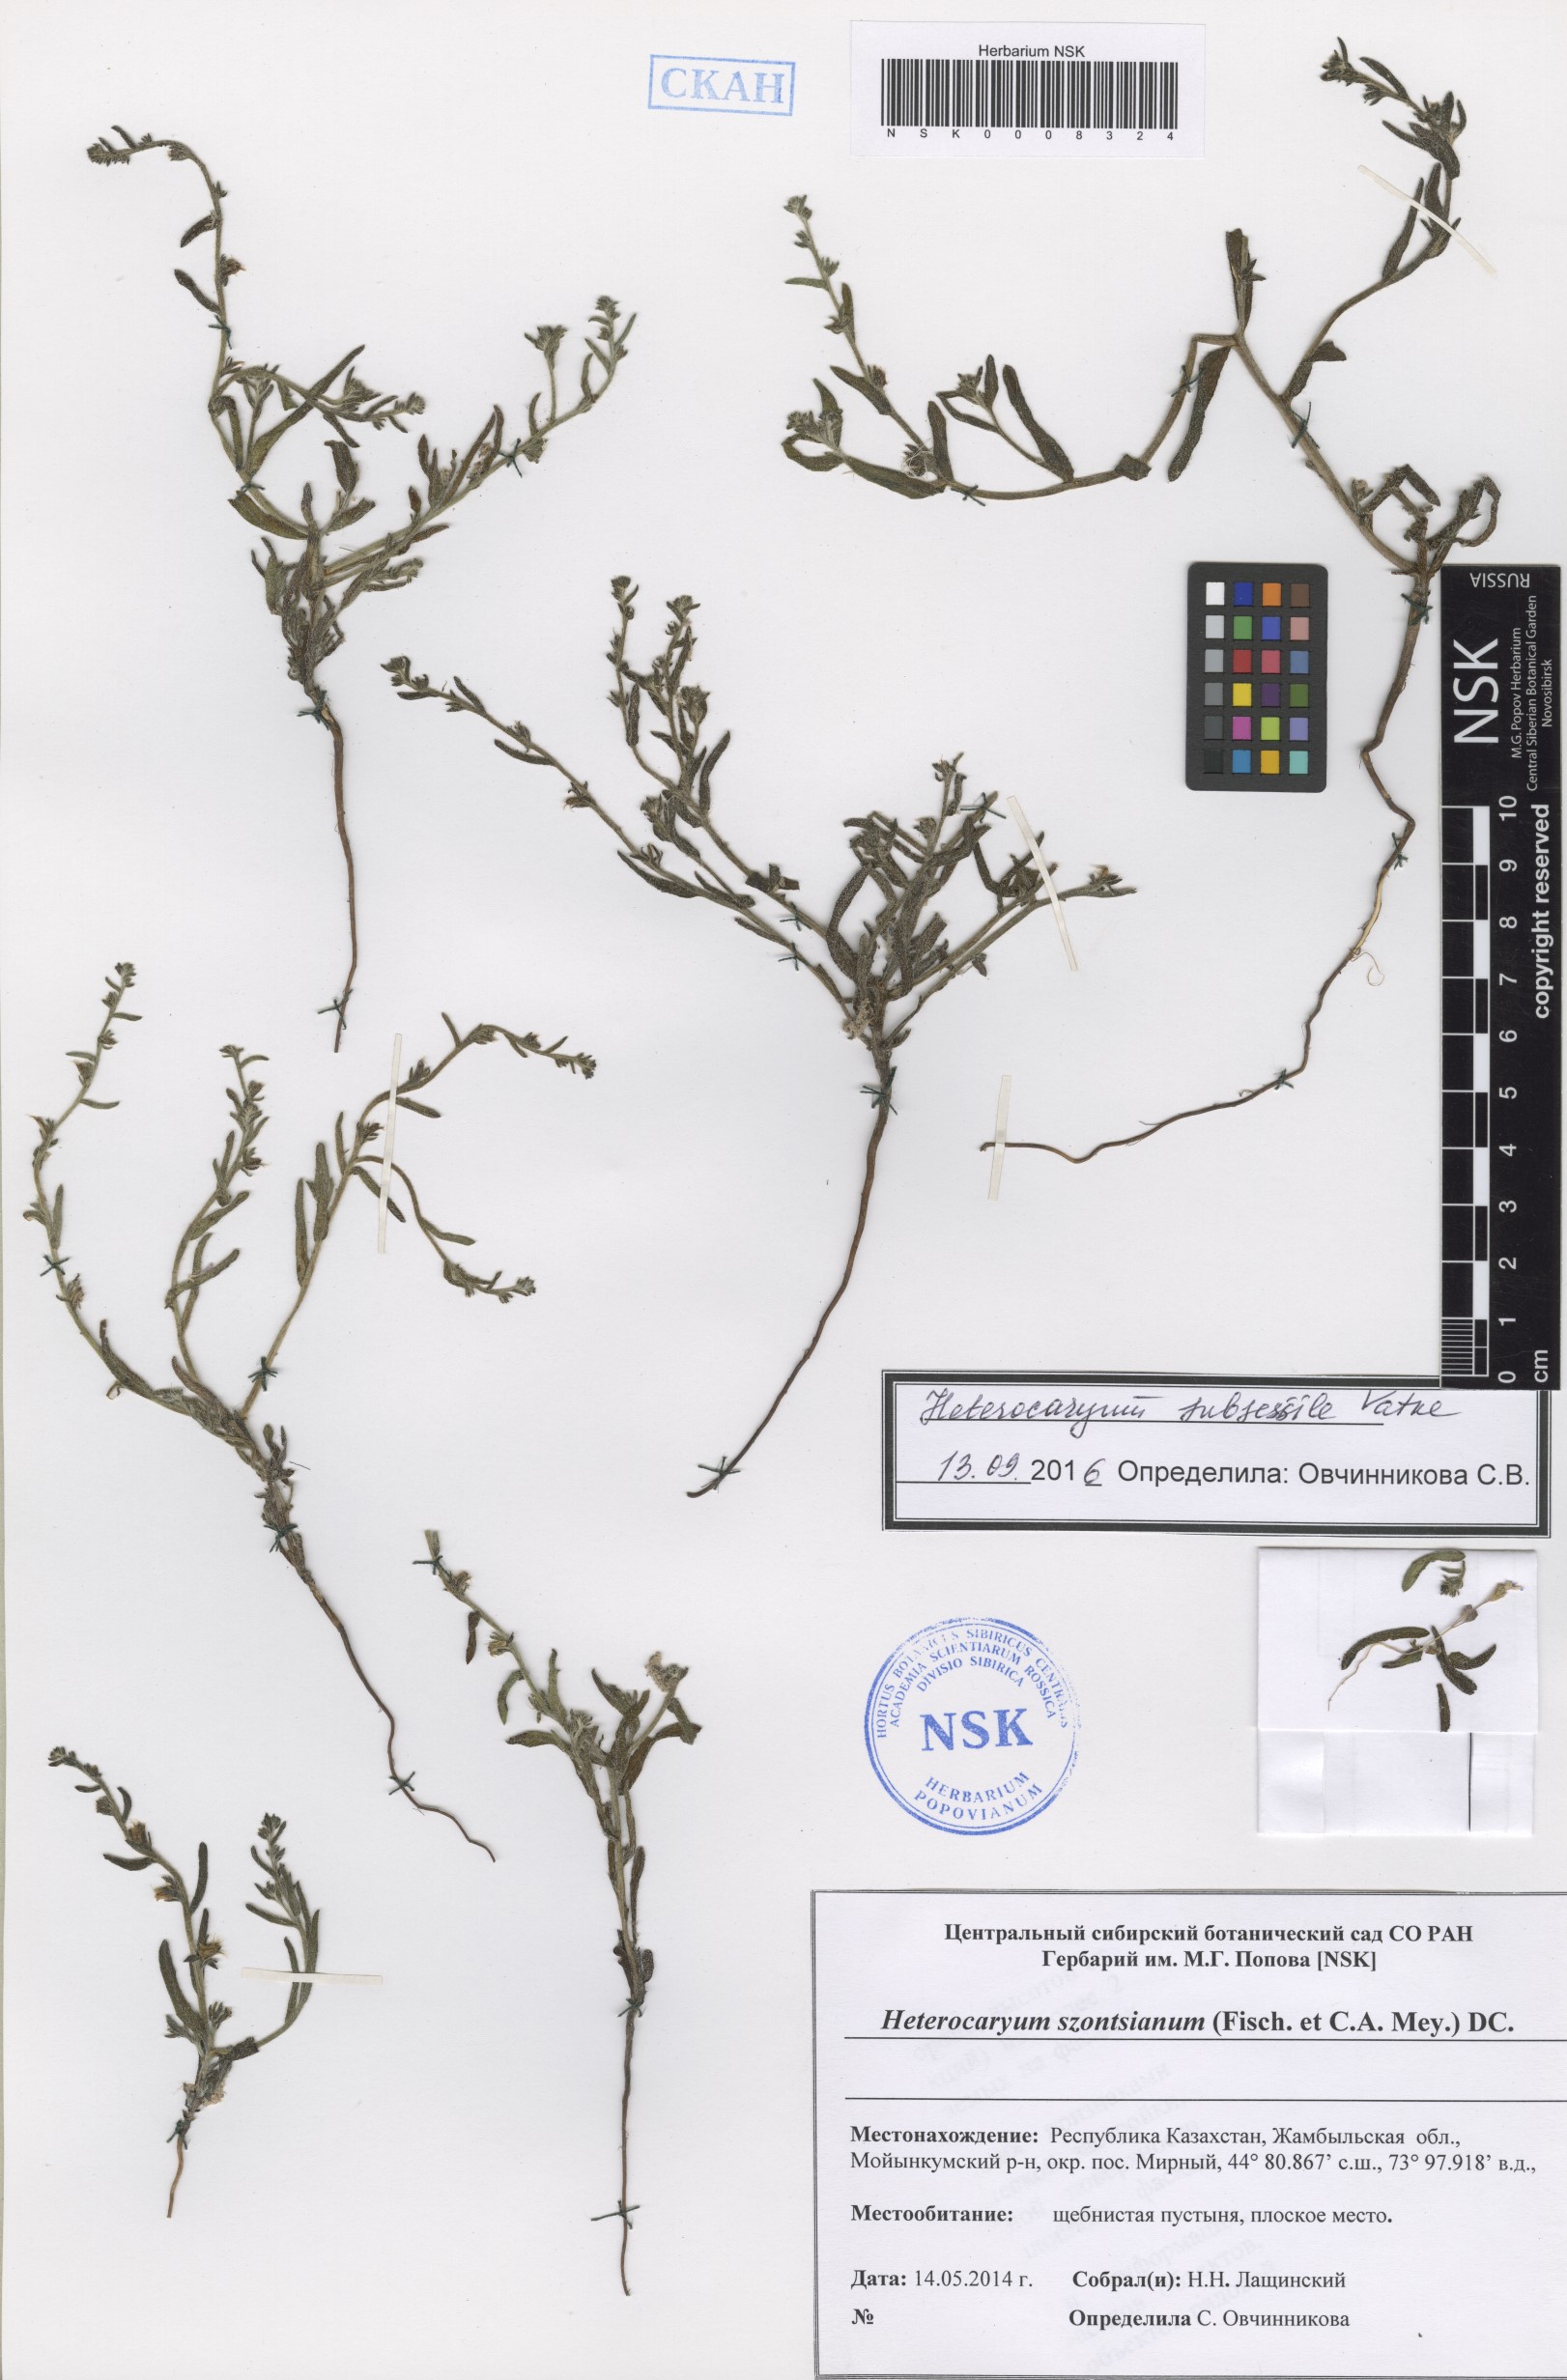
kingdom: Plantae
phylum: Tracheophyta
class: Magnoliopsida
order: Boraginales
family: Boraginaceae
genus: Pseudoheterocaryum
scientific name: Pseudoheterocaryum subsessile
